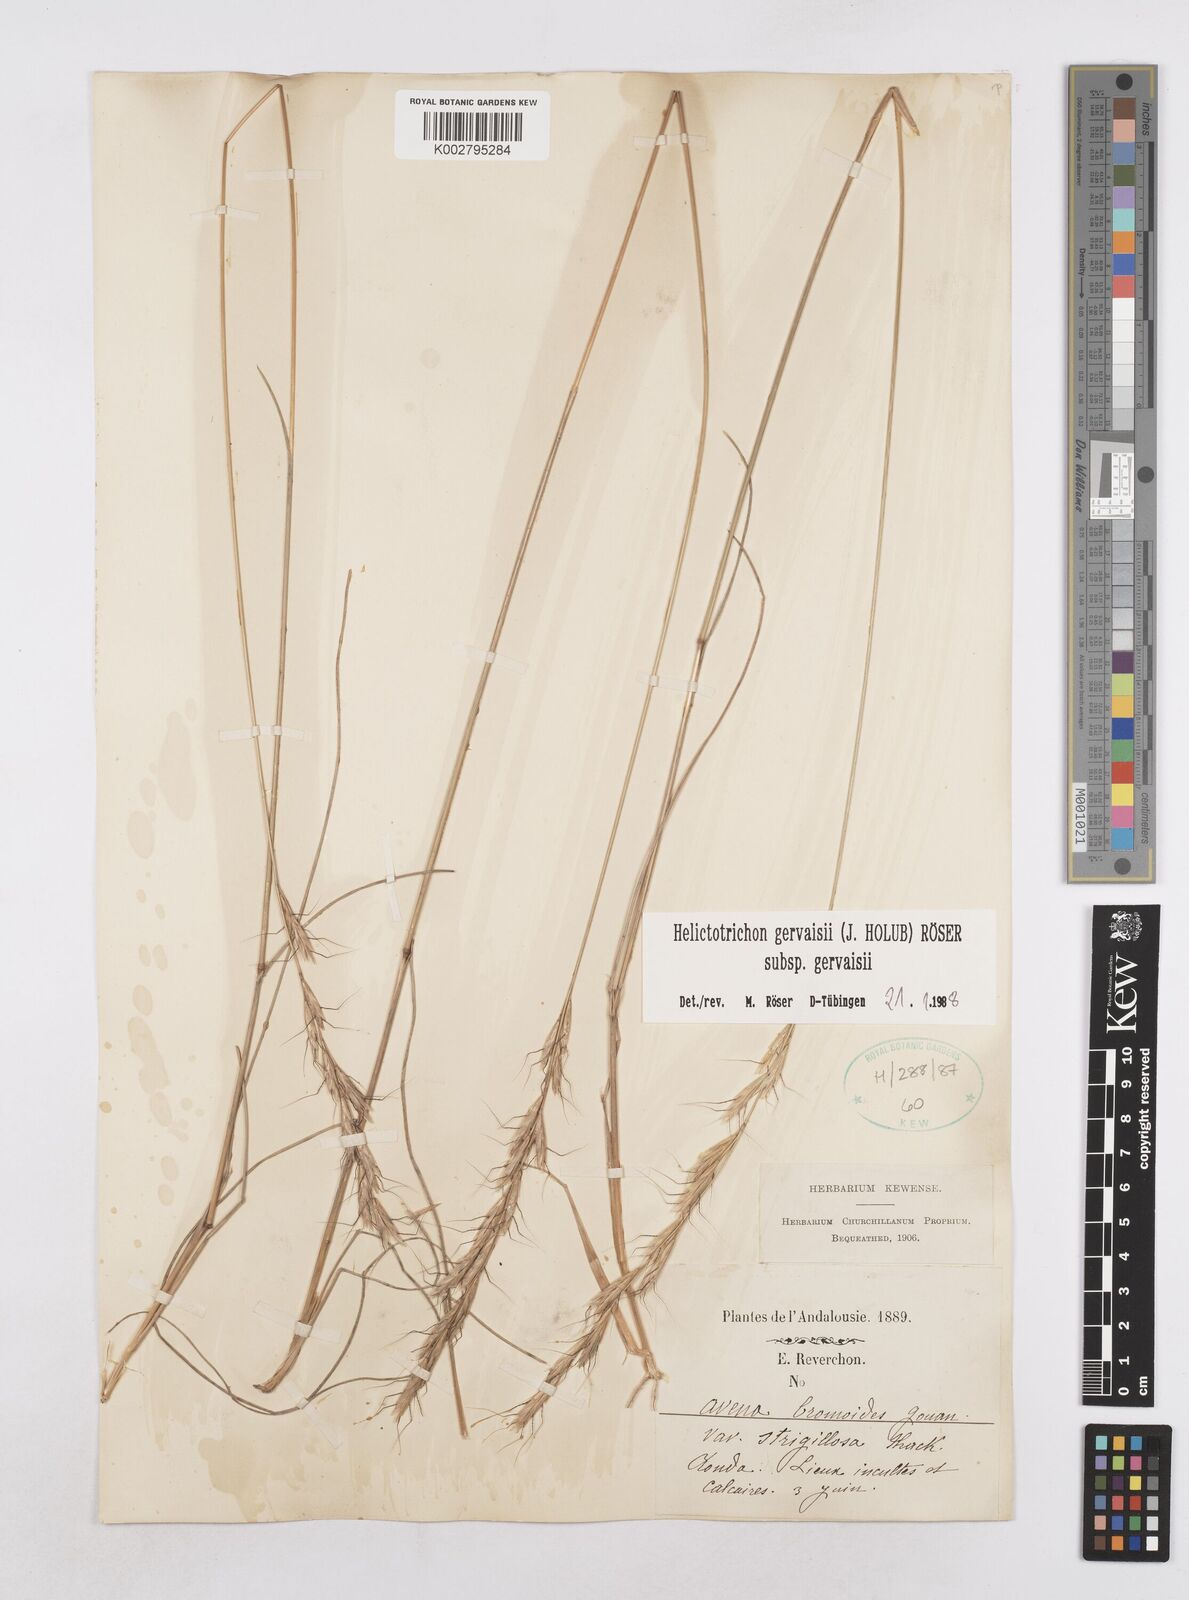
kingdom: Plantae
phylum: Tracheophyta
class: Liliopsida
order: Poales
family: Poaceae
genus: Helictochloa
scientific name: Helictochloa gervaisii
